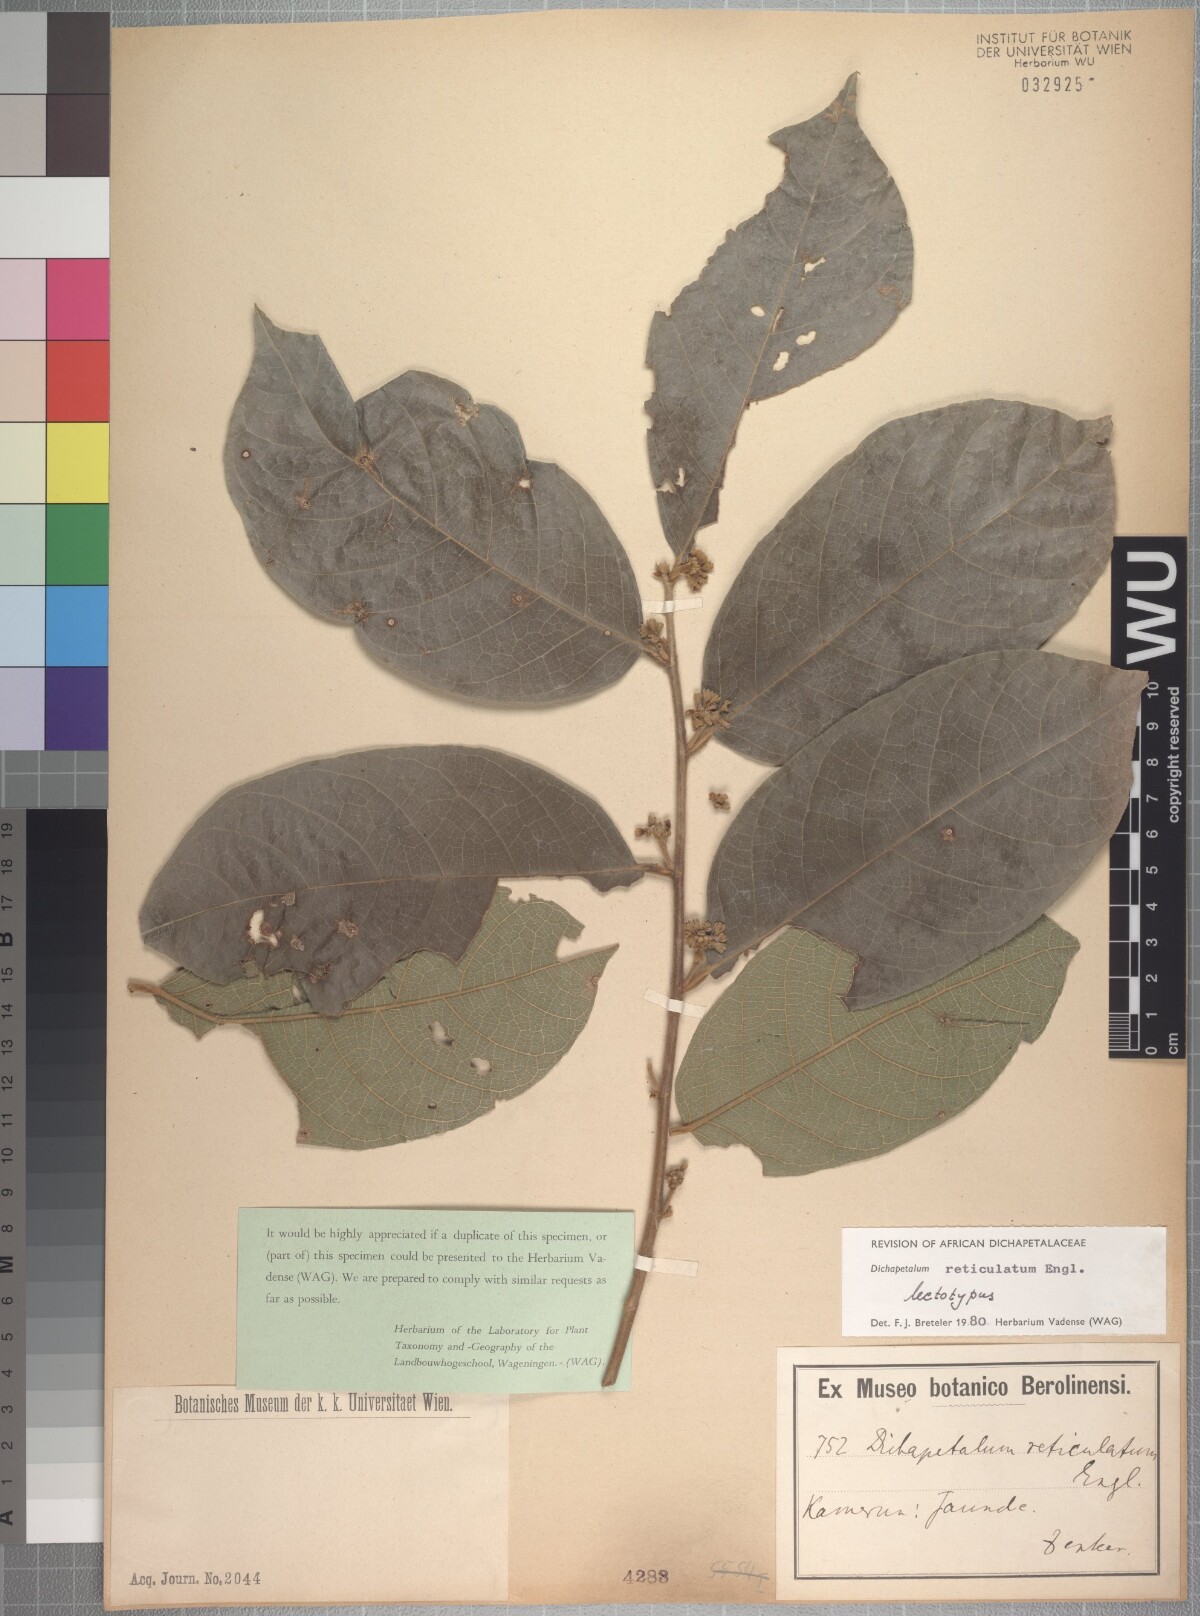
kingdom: Plantae
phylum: Tracheophyta
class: Magnoliopsida
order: Malpighiales
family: Dichapetalaceae
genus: Dichapetalum
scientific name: Dichapetalum reticulatum
